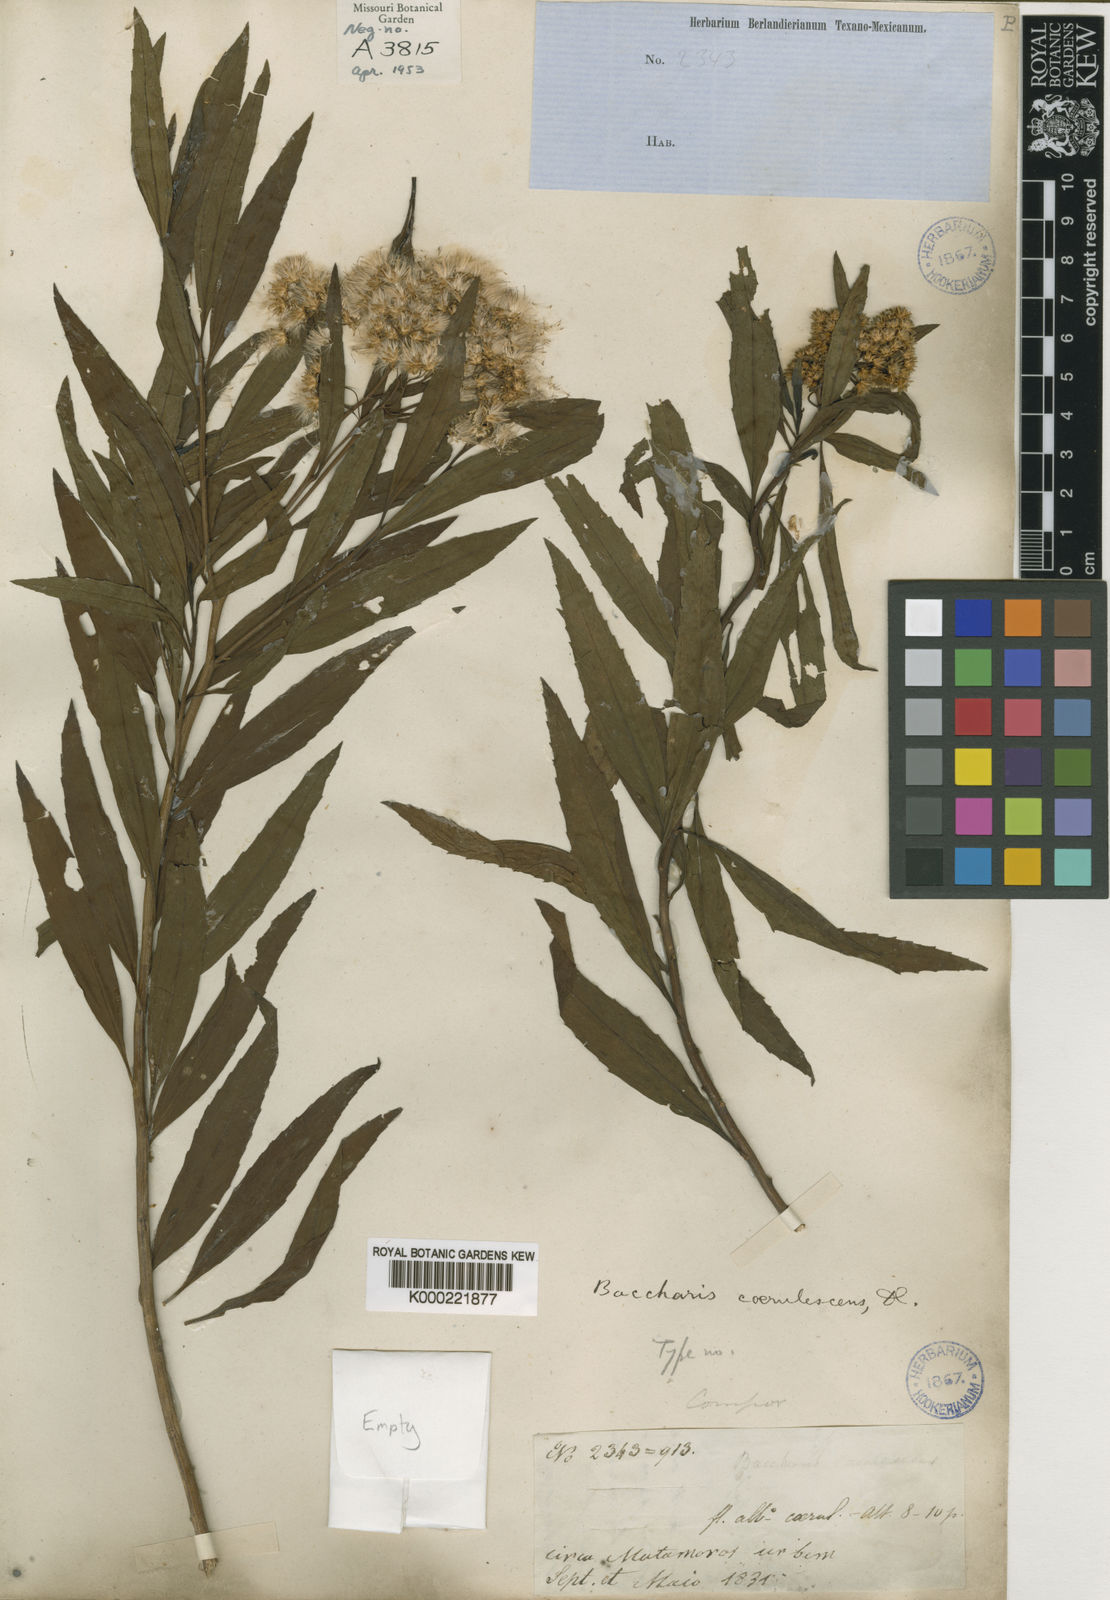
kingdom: Plantae
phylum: Tracheophyta
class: Magnoliopsida
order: Asterales
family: Asteraceae
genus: Baccharis
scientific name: Baccharis salicifolia
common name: Sticky baccharis
